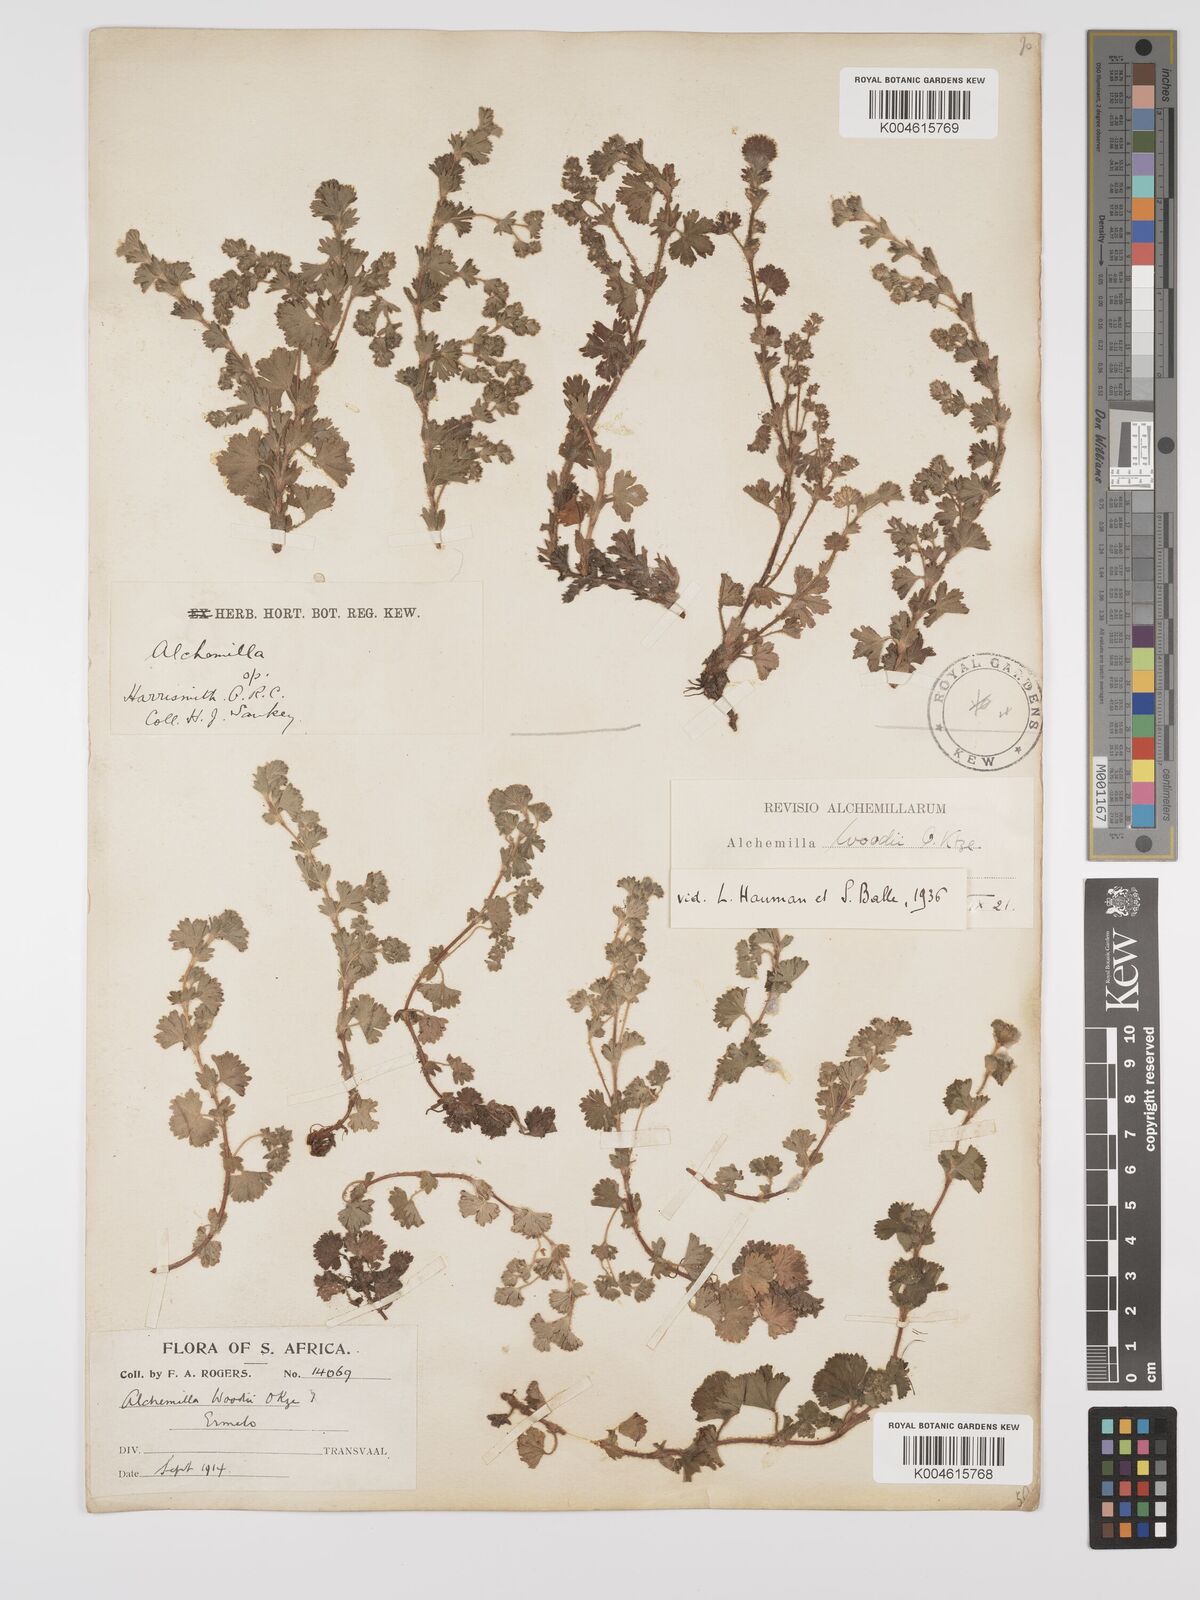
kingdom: Plantae
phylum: Tracheophyta
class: Magnoliopsida
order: Rosales
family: Rosaceae
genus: Alchemilla
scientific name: Alchemilla woodii
